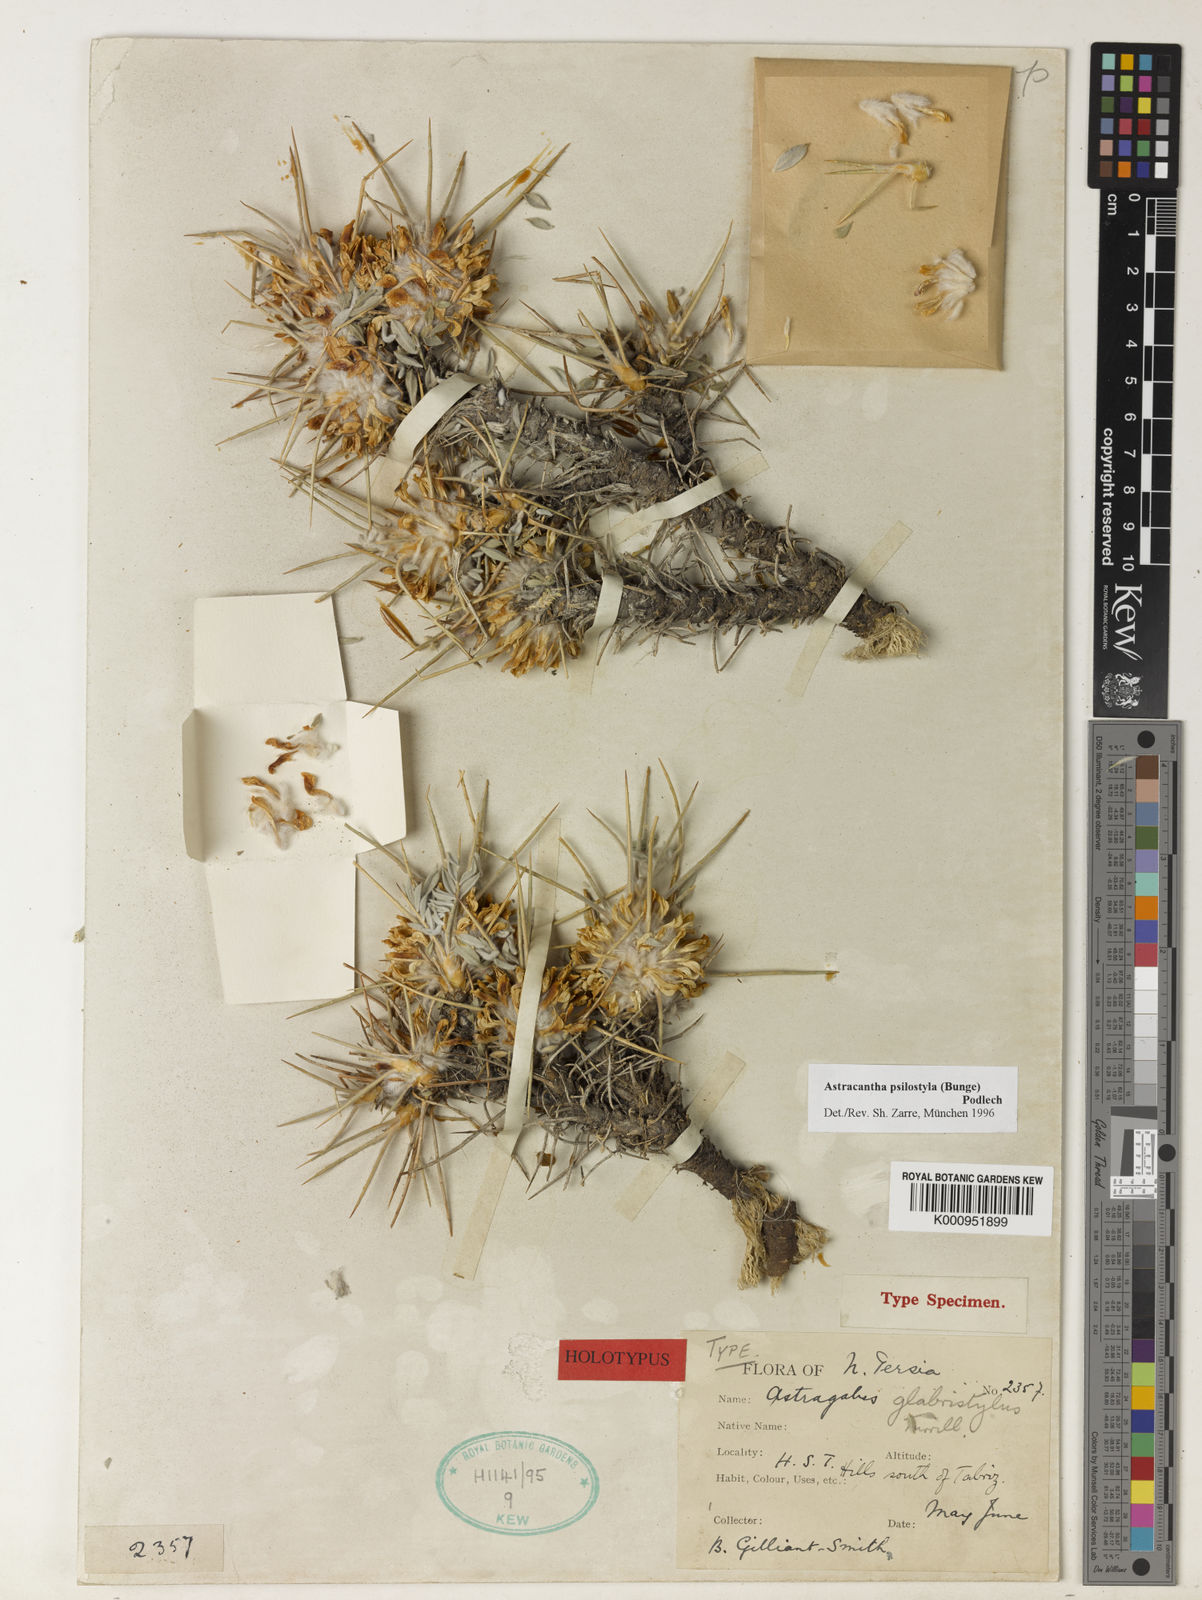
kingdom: Plantae
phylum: Tracheophyta
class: Magnoliopsida
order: Fabales
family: Fabaceae
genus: Astragalus
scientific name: Astragalus psilostylus
